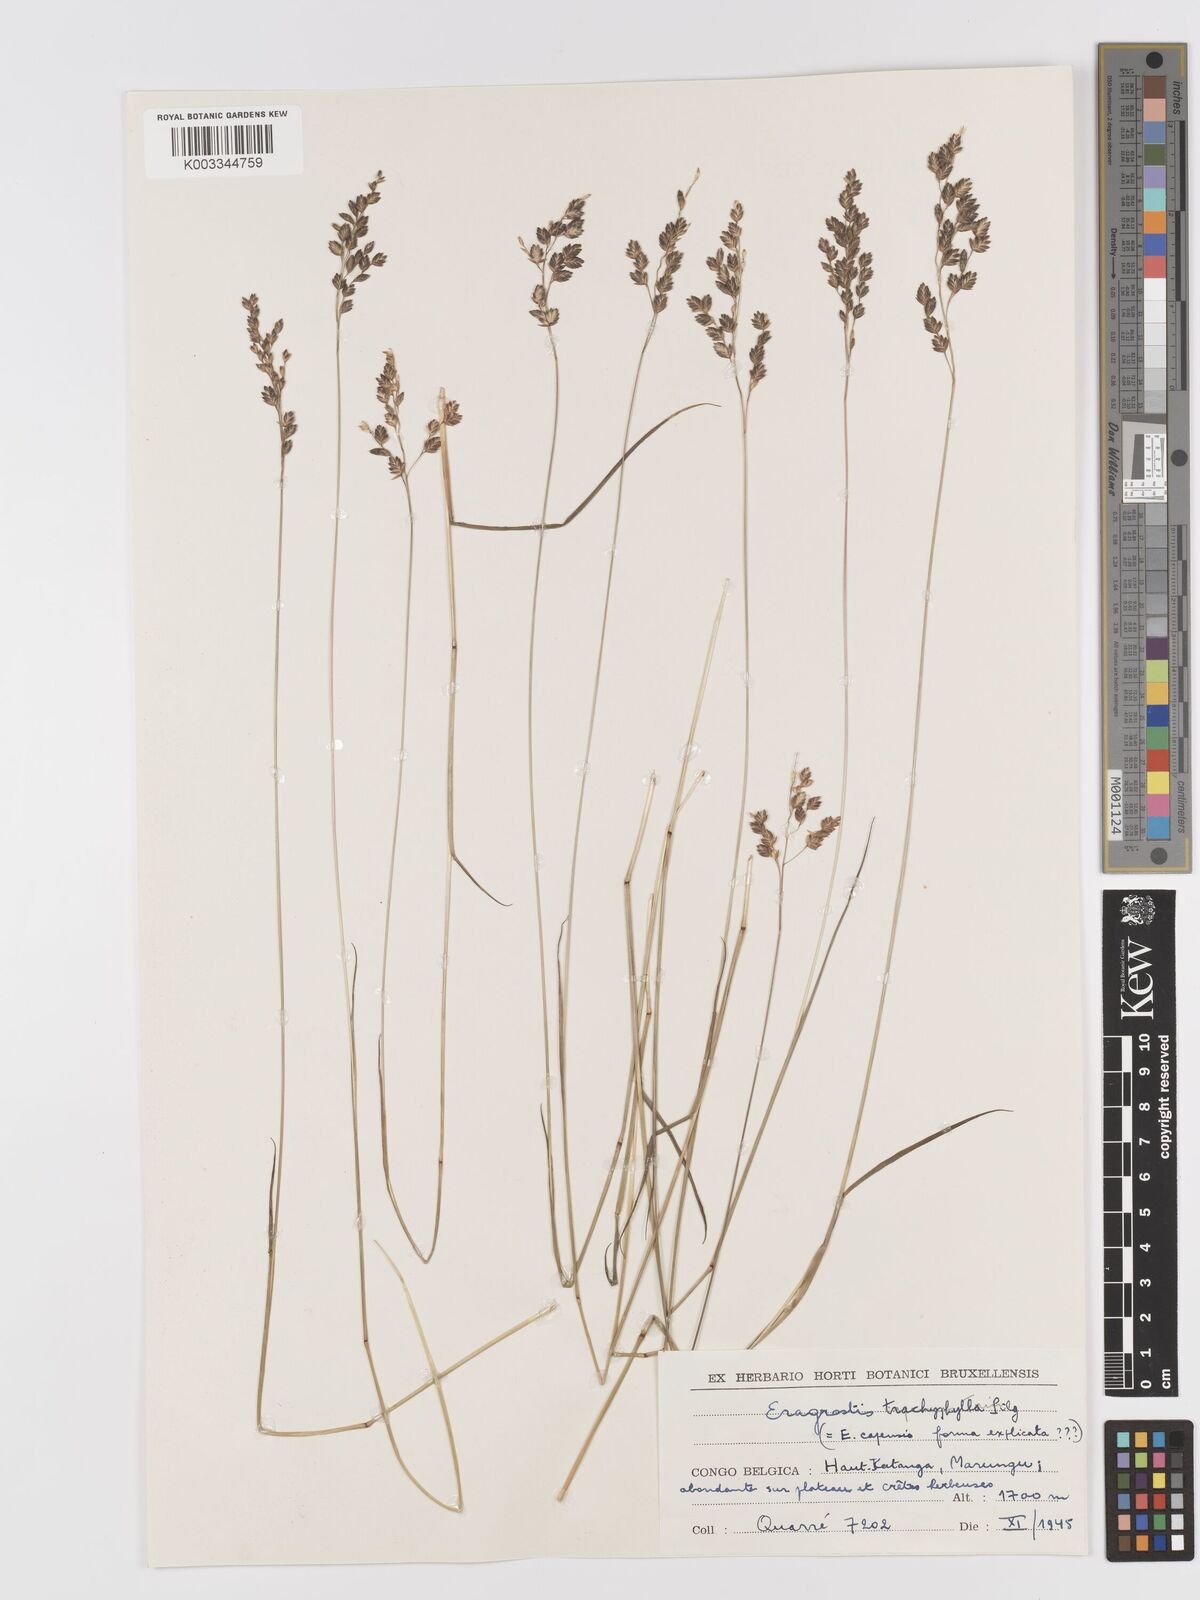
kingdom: Plantae
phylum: Tracheophyta
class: Liliopsida
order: Poales
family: Poaceae
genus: Eragrostis
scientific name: Eragrostis capensis
